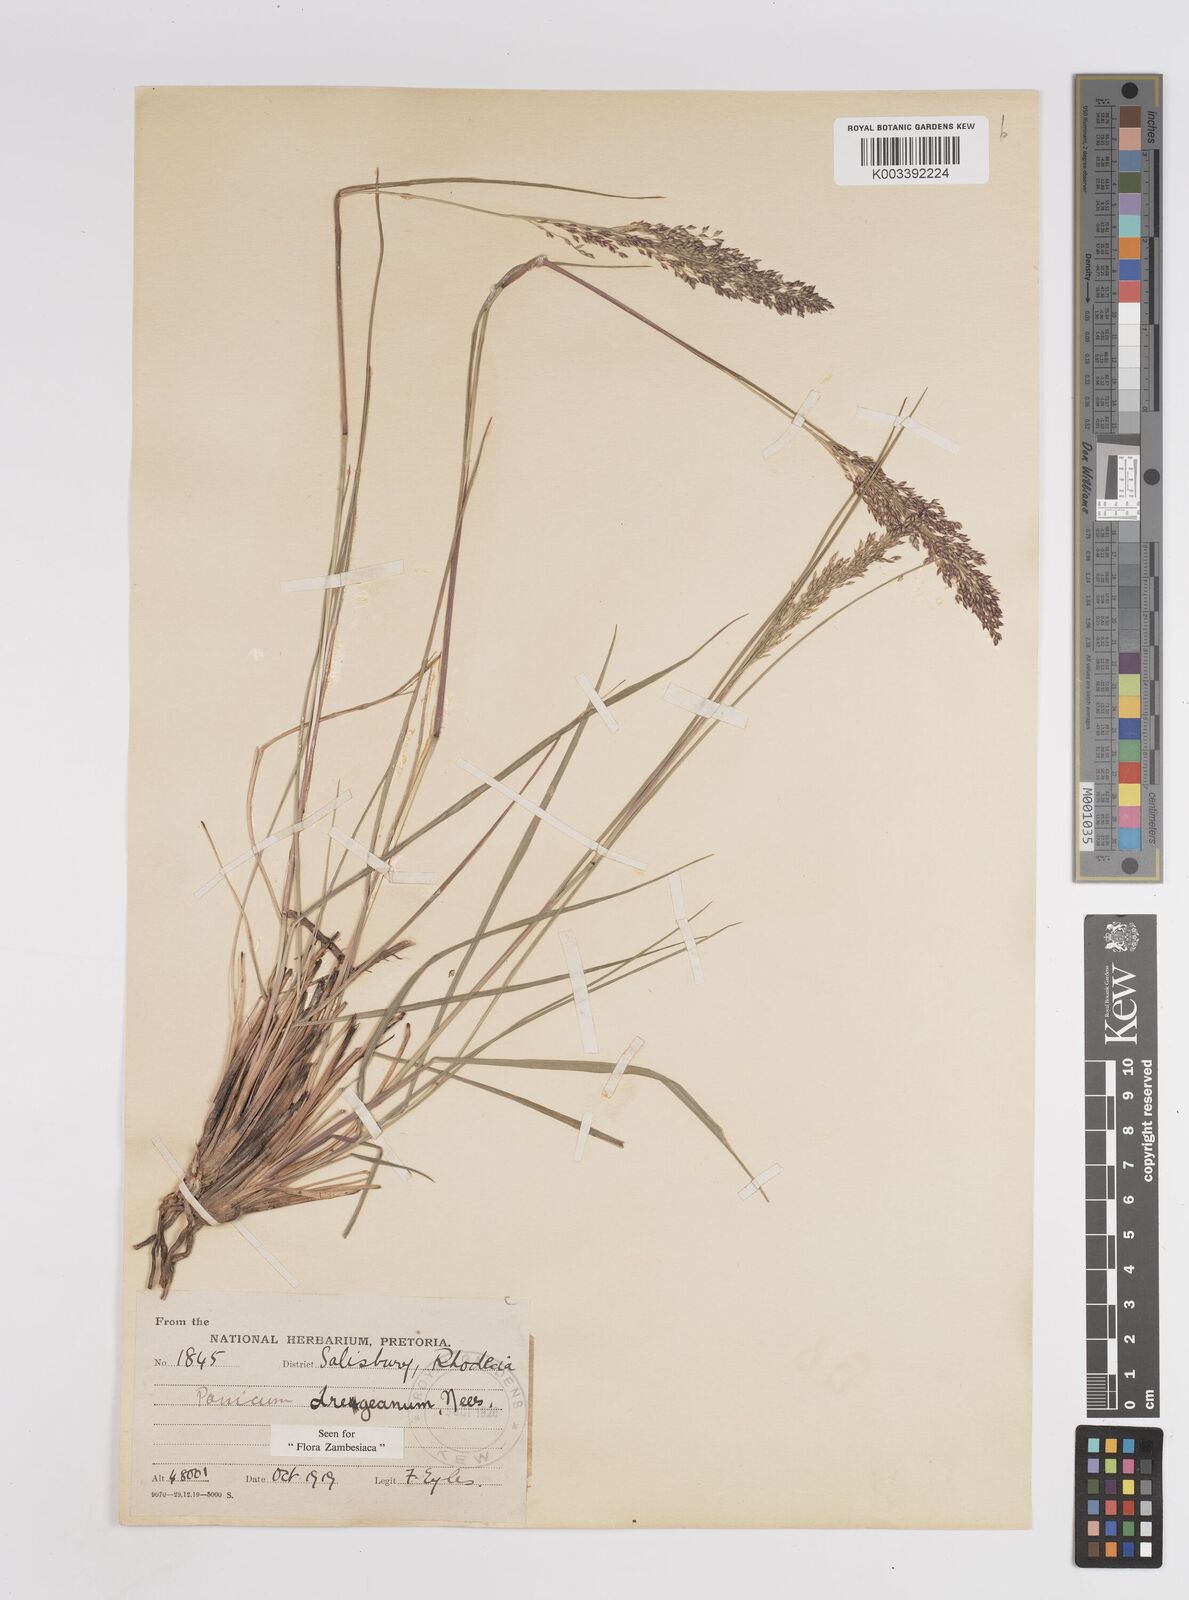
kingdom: Plantae
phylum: Tracheophyta
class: Liliopsida
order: Poales
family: Poaceae
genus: Panicum
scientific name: Panicum dregeanum
